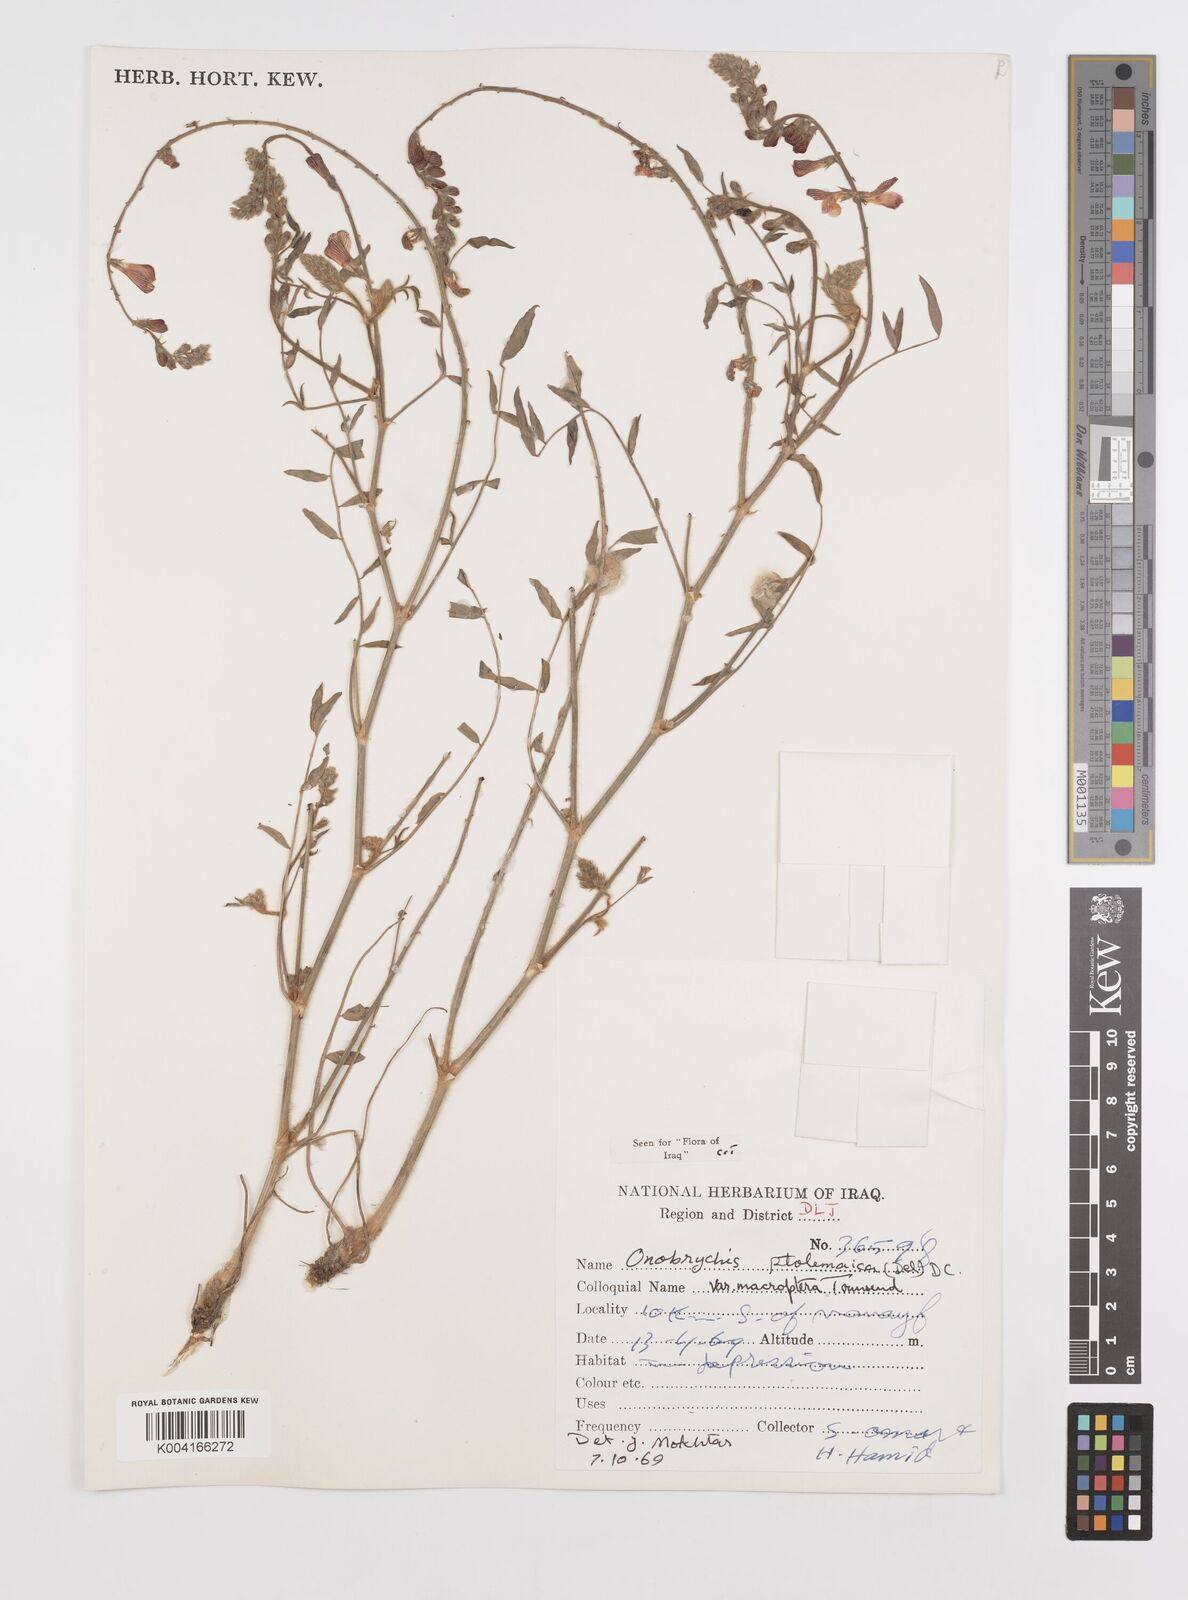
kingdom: Plantae
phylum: Tracheophyta
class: Magnoliopsida
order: Fabales
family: Fabaceae
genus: Onobrychis
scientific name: Onobrychis ptolemaica
